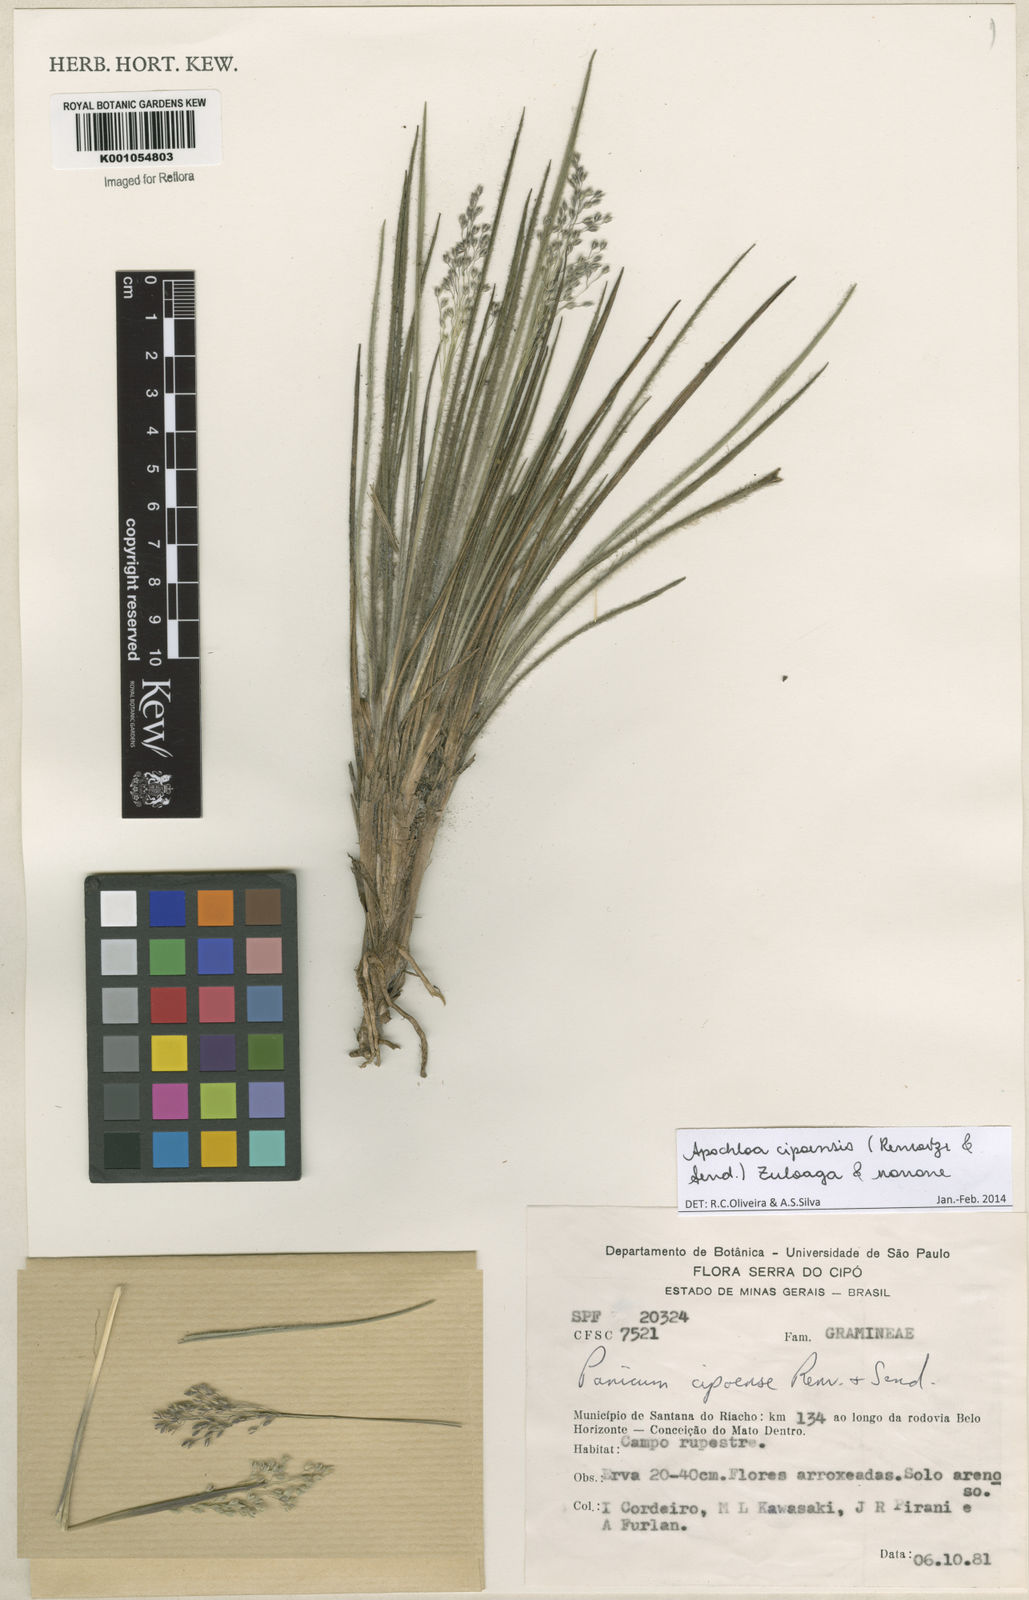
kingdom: Plantae
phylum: Tracheophyta
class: Liliopsida
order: Poales
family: Poaceae
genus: Apochloa
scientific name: Apochloa cipoensis
